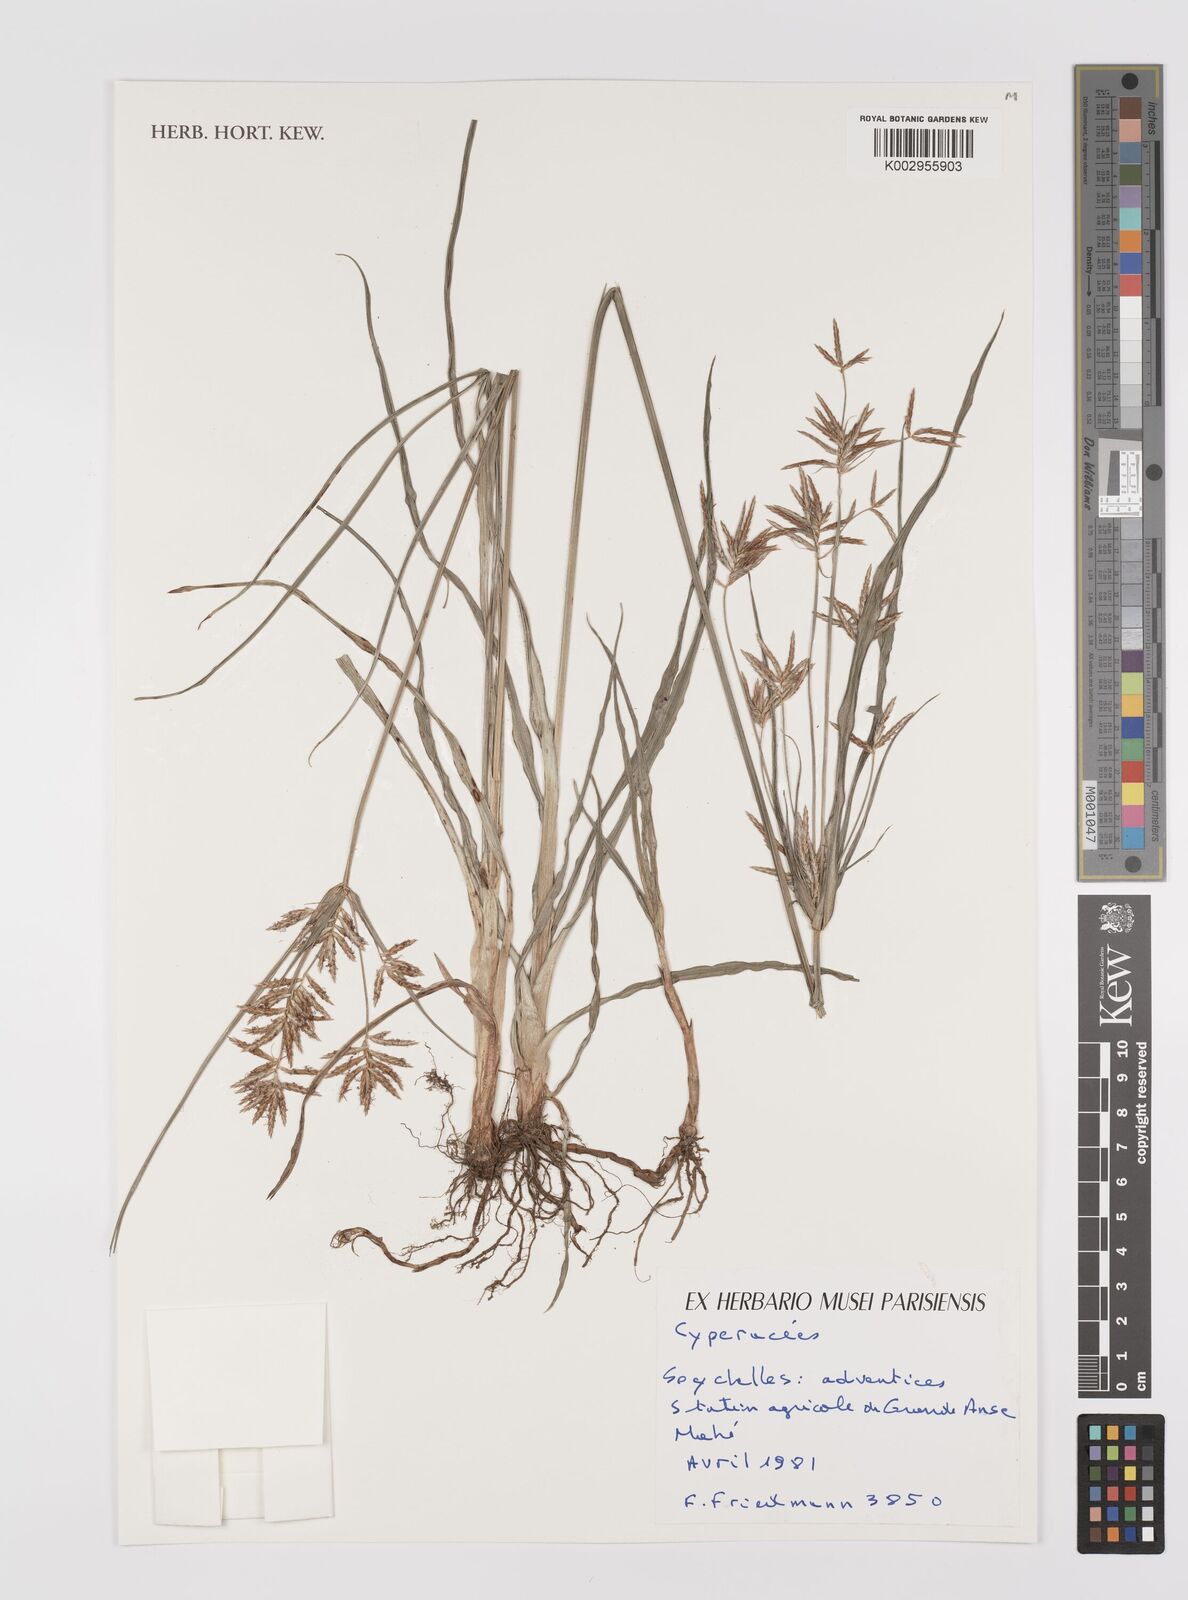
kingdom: Plantae
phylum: Tracheophyta
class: Liliopsida
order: Poales
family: Cyperaceae
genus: Cyperus
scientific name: Cyperus
